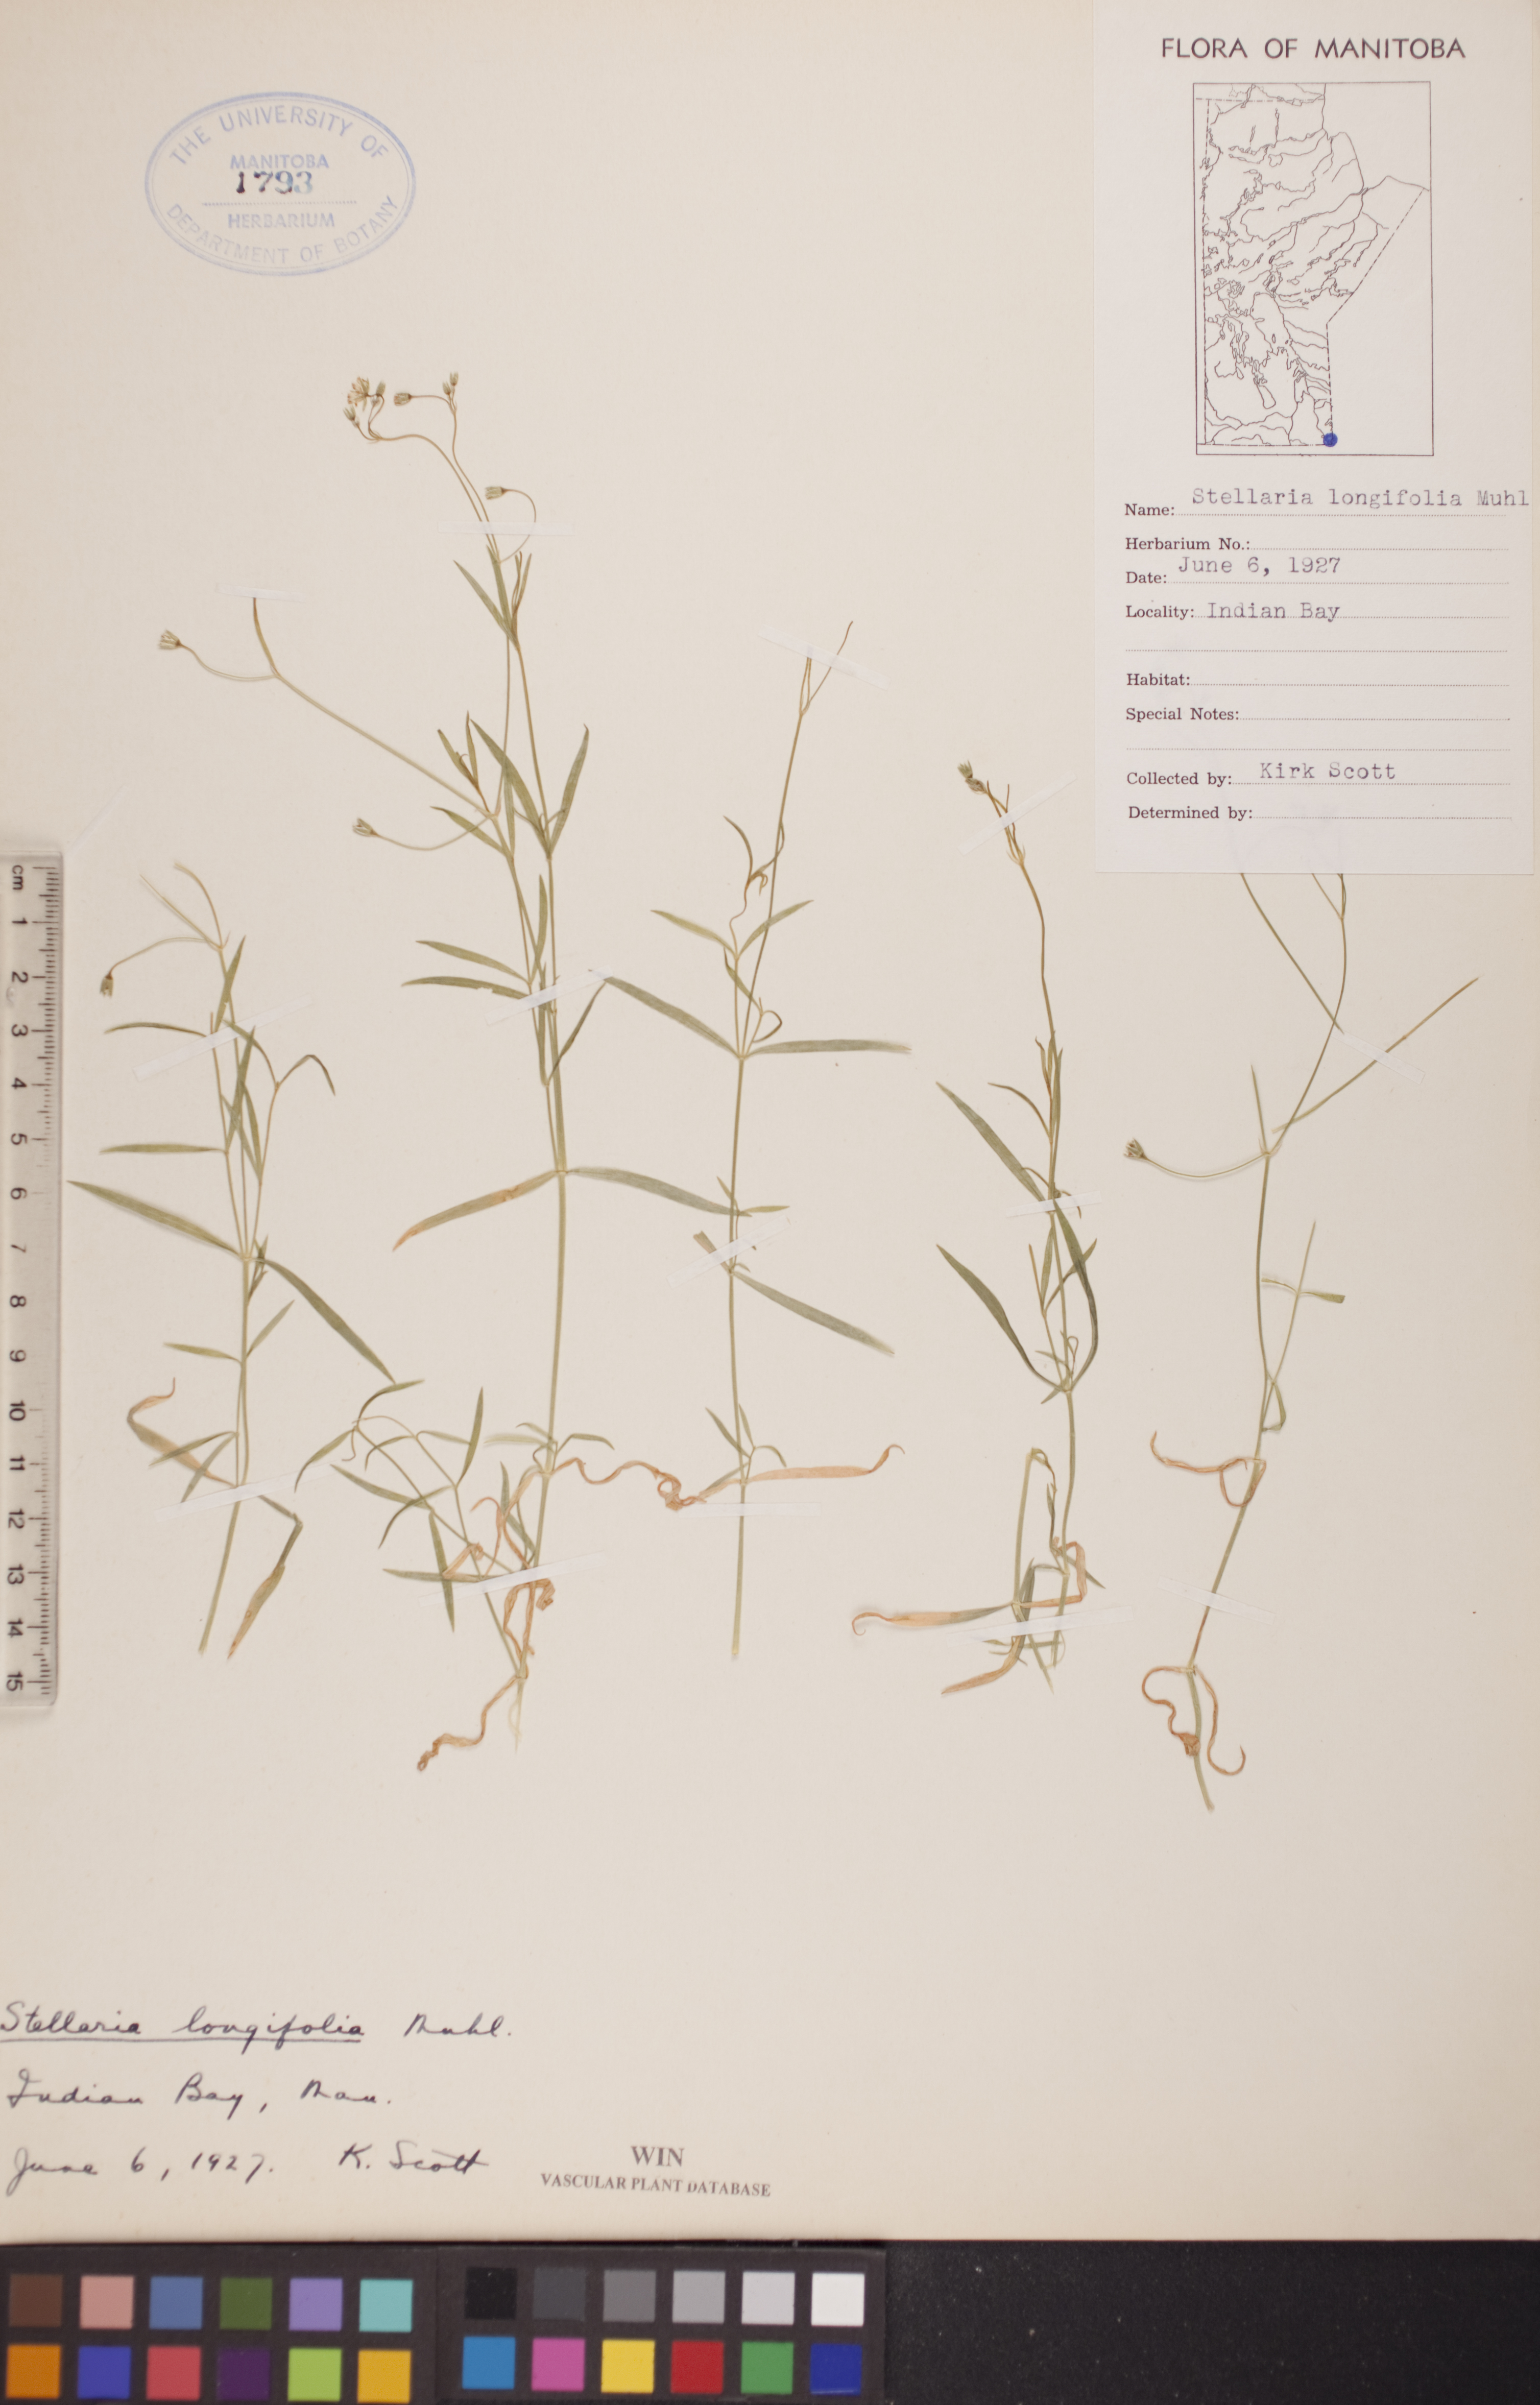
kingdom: Plantae
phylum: Tracheophyta
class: Magnoliopsida
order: Caryophyllales
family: Caryophyllaceae
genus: Stellaria
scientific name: Stellaria longifolia
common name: Long-leaved chickweed
